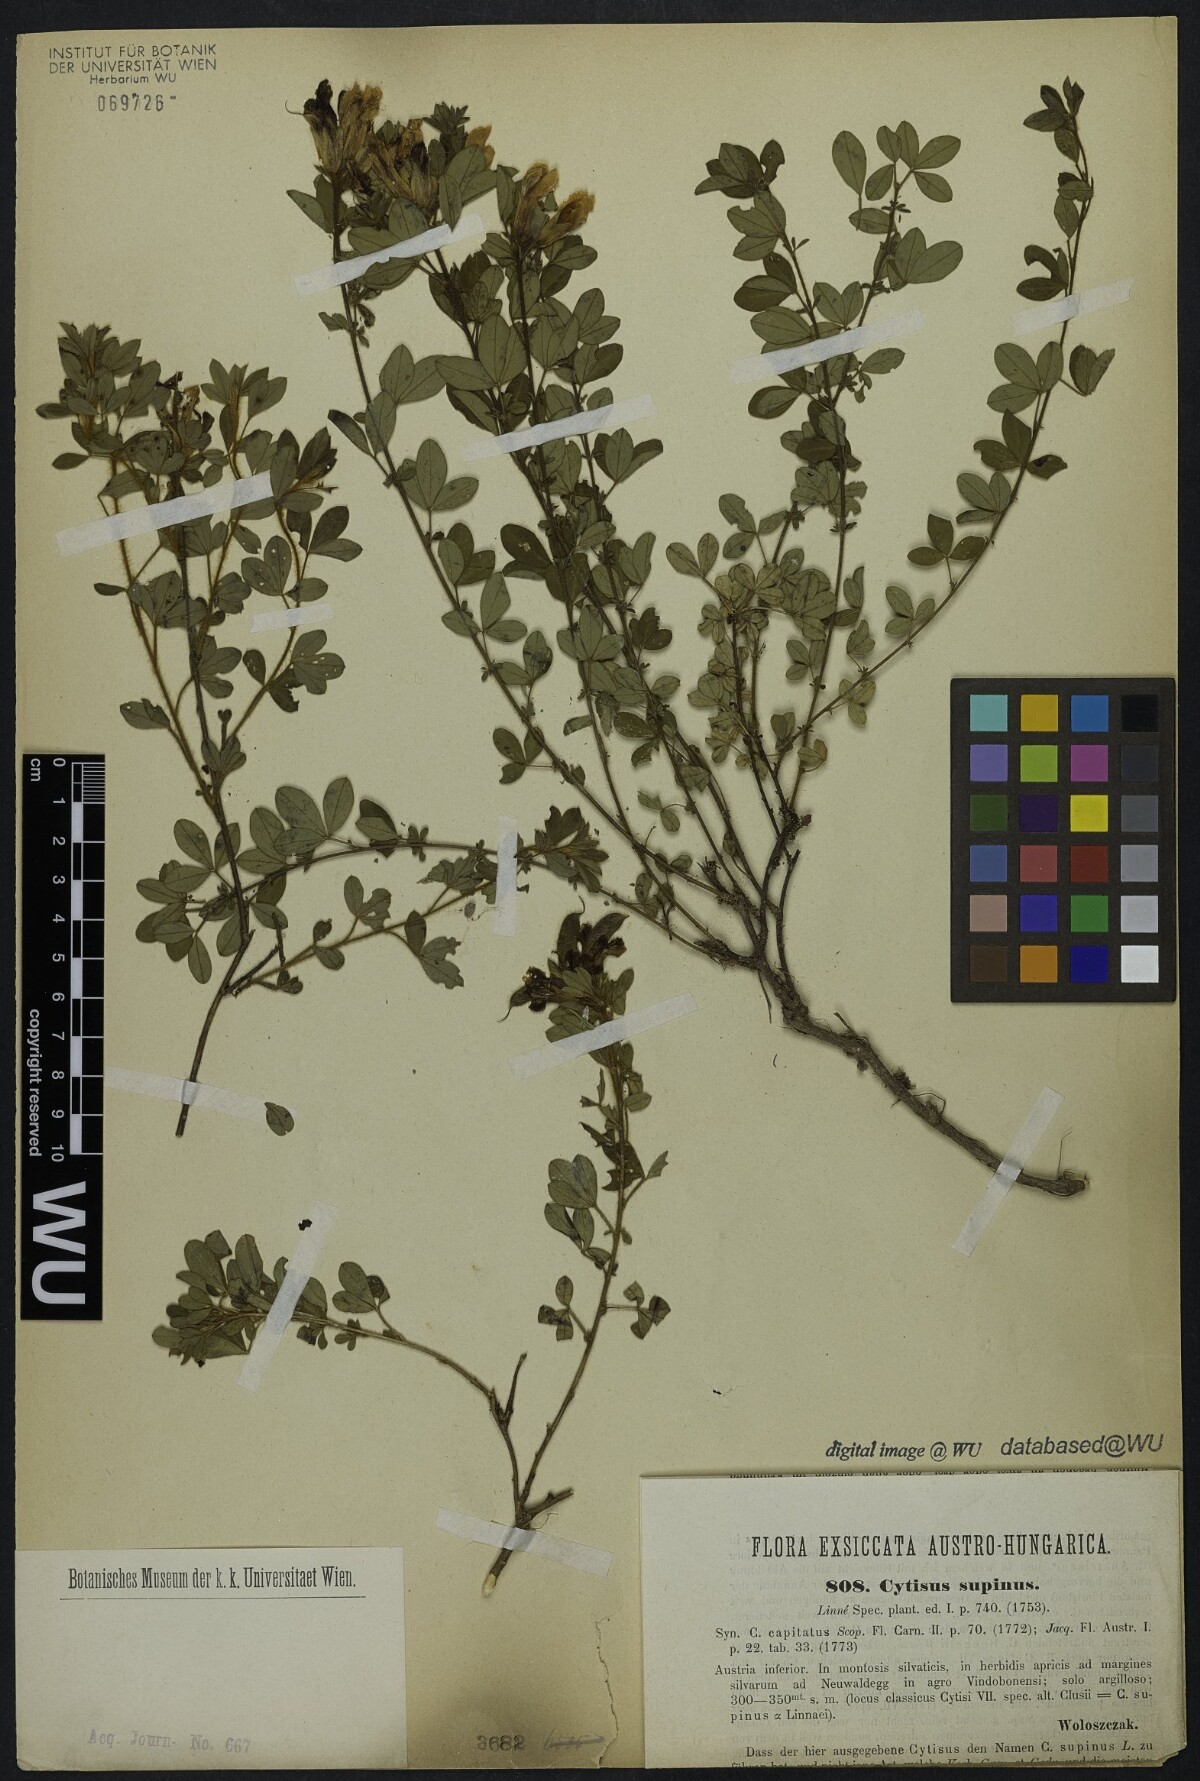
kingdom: Plantae
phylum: Tracheophyta
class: Magnoliopsida
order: Fabales
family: Fabaceae
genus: Chamaecytisus
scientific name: Chamaecytisus supinus
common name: Clustered broom
